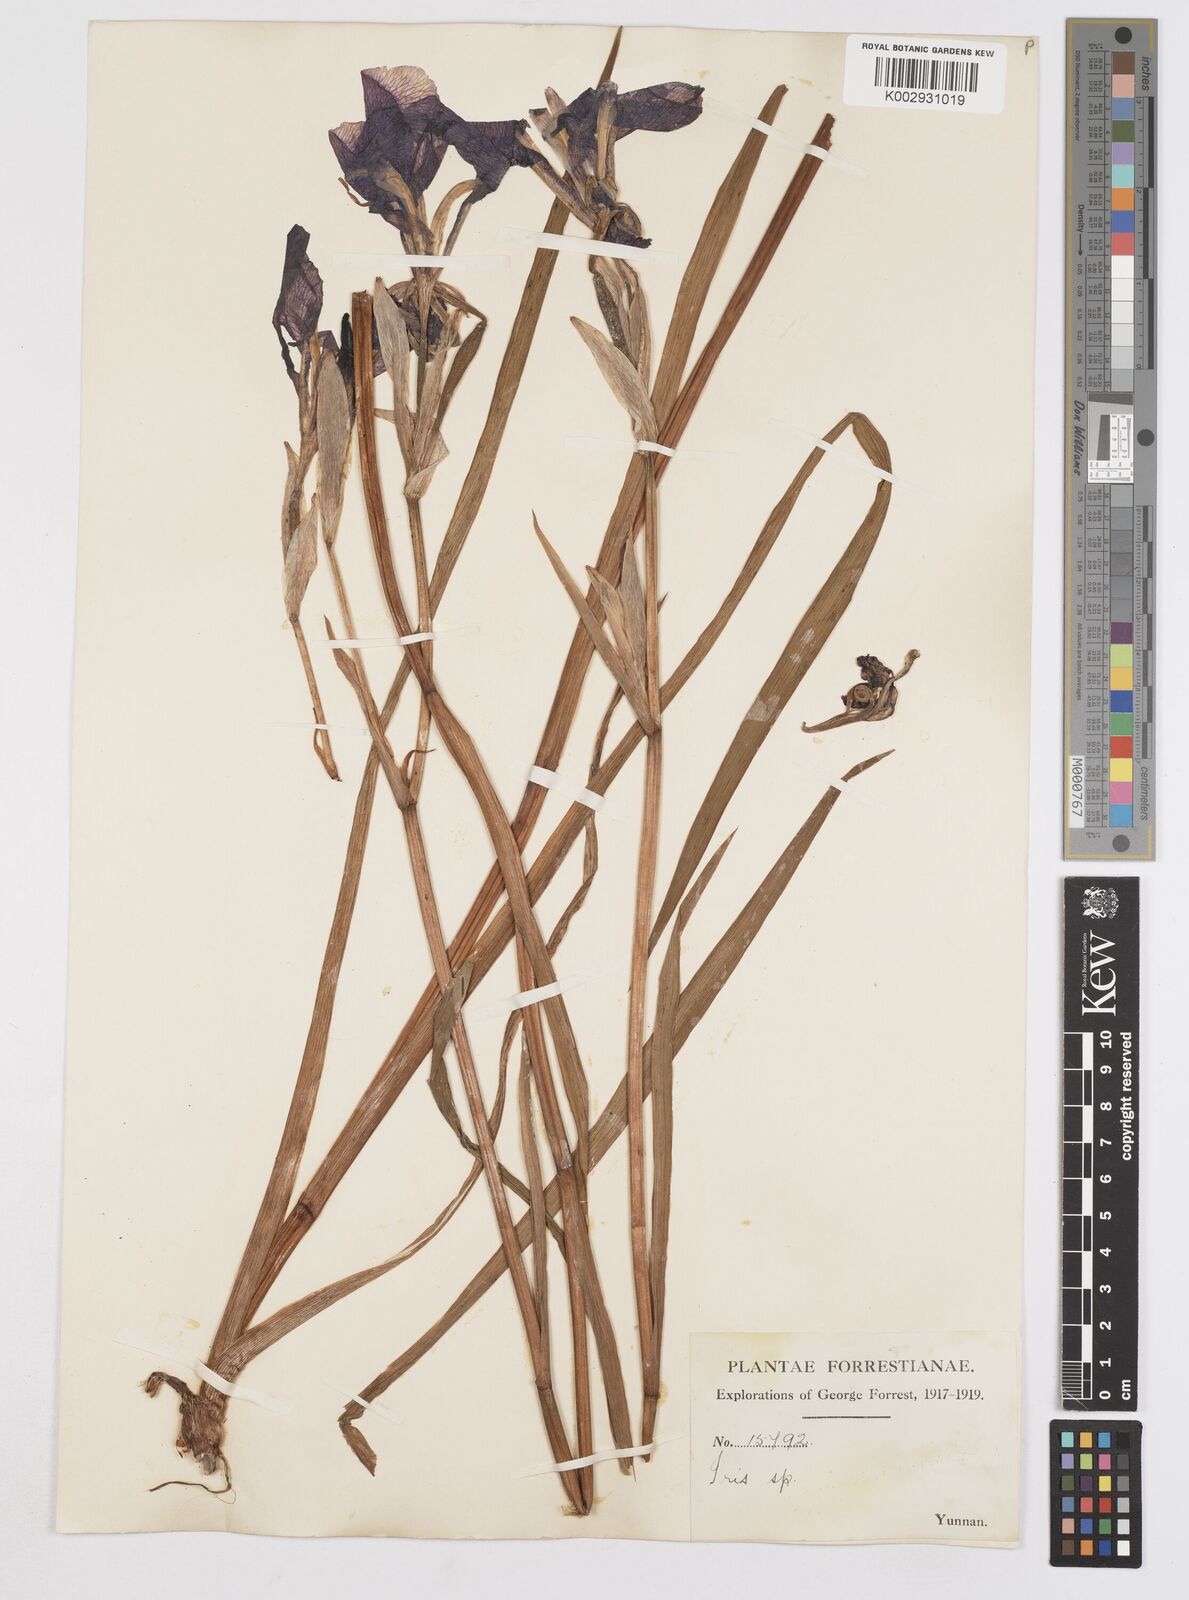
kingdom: Plantae
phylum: Tracheophyta
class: Liliopsida
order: Asparagales
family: Iridaceae
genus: Iris
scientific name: Iris
